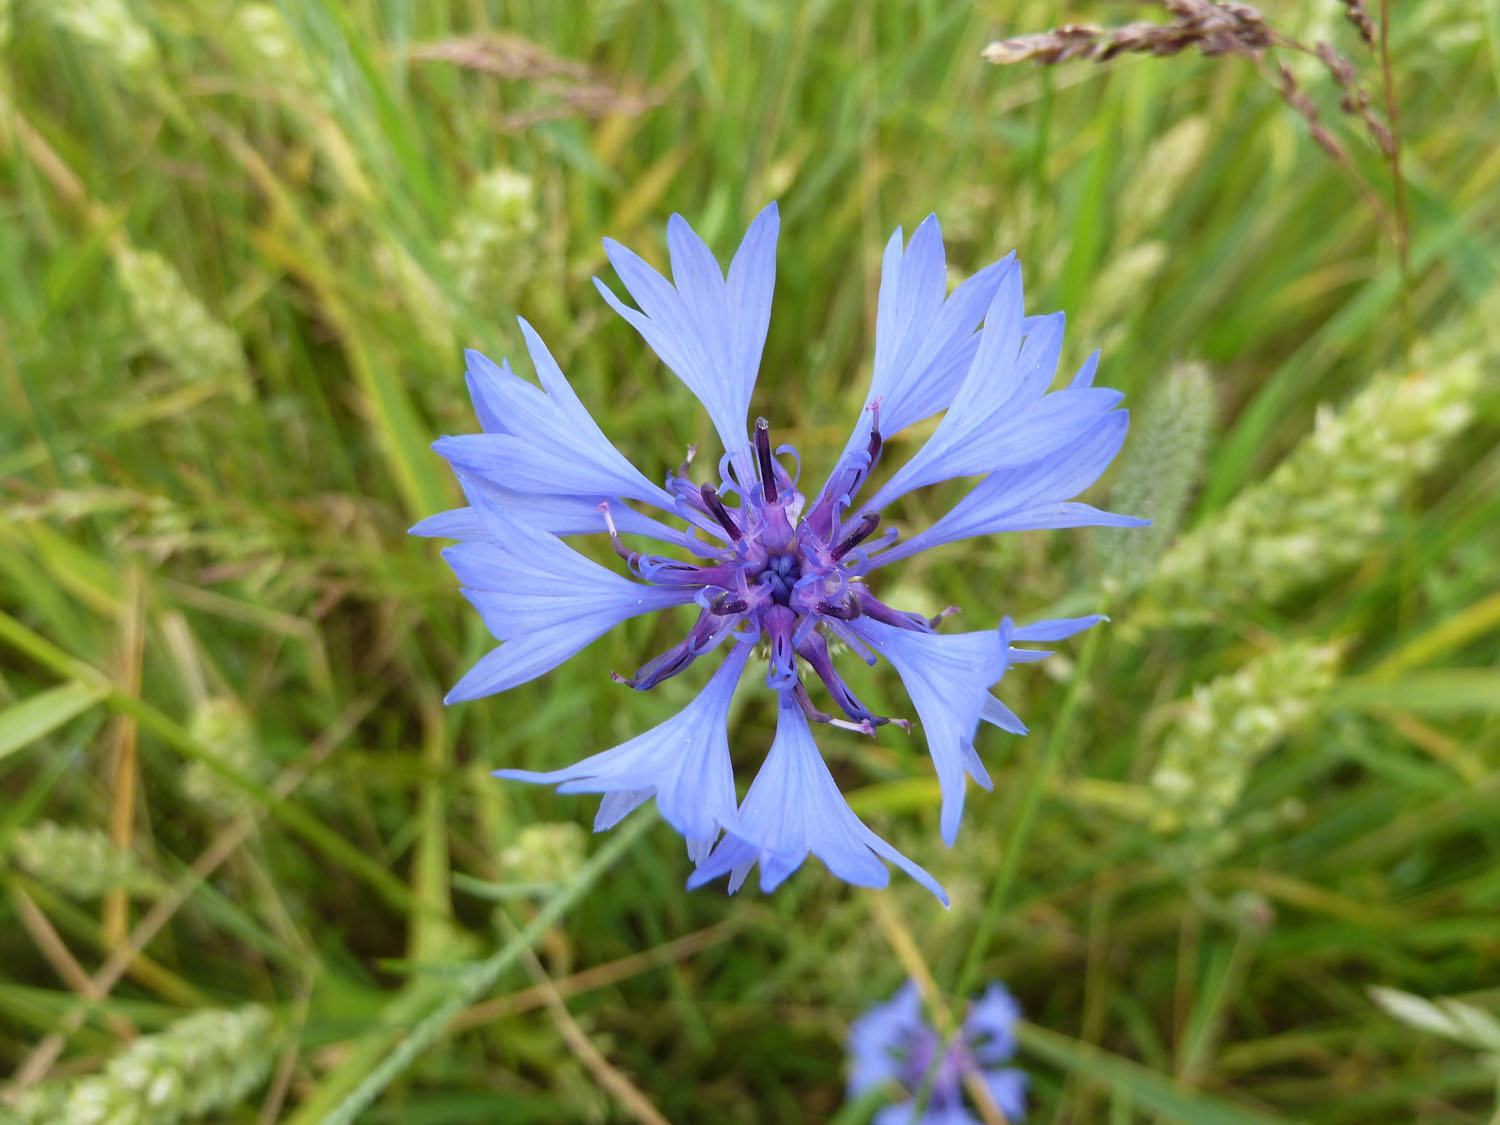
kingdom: Plantae
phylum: Tracheophyta
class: Magnoliopsida
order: Asterales
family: Asteraceae
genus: Centaurea
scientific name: Centaurea cyanus
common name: Cornflower
